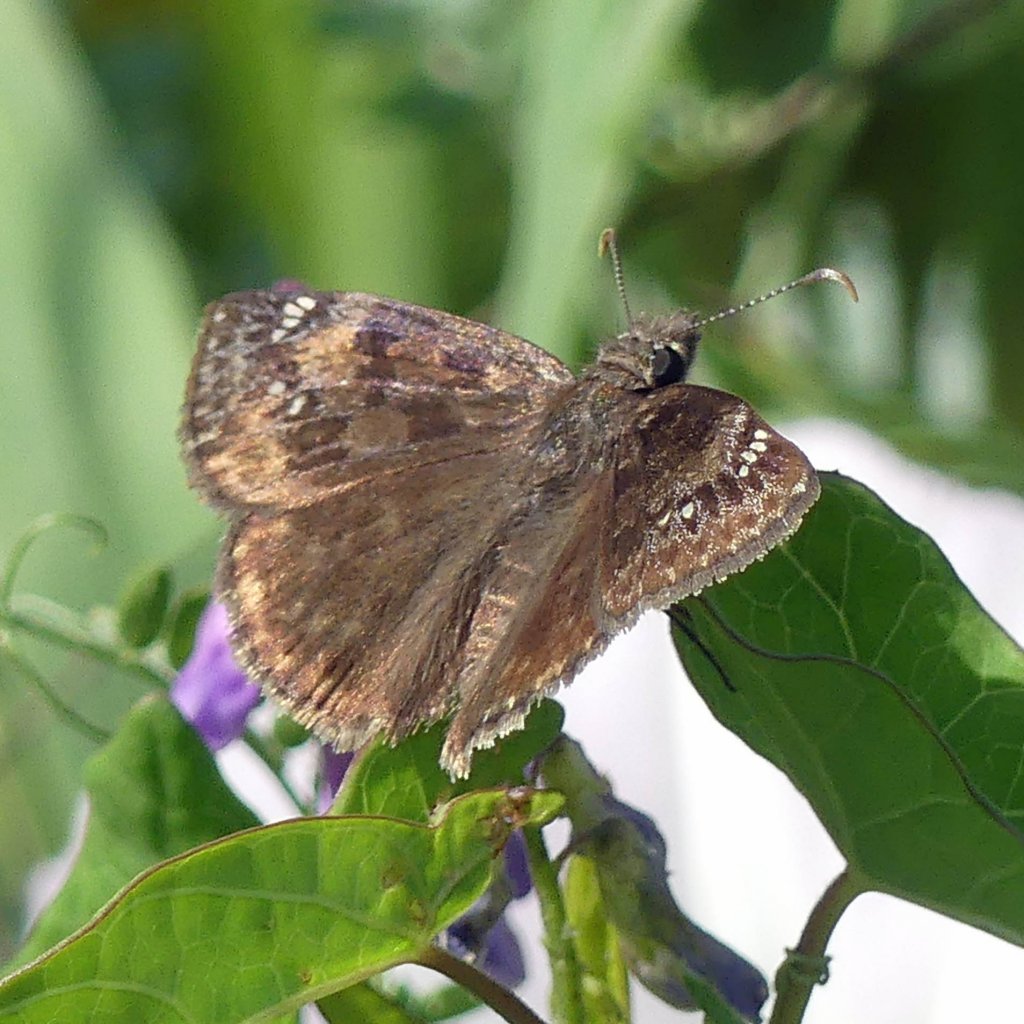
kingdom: Animalia
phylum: Arthropoda
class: Insecta
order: Lepidoptera
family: Hesperiidae
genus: Gesta
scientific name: Gesta
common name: Wild Indigo Duskywing
